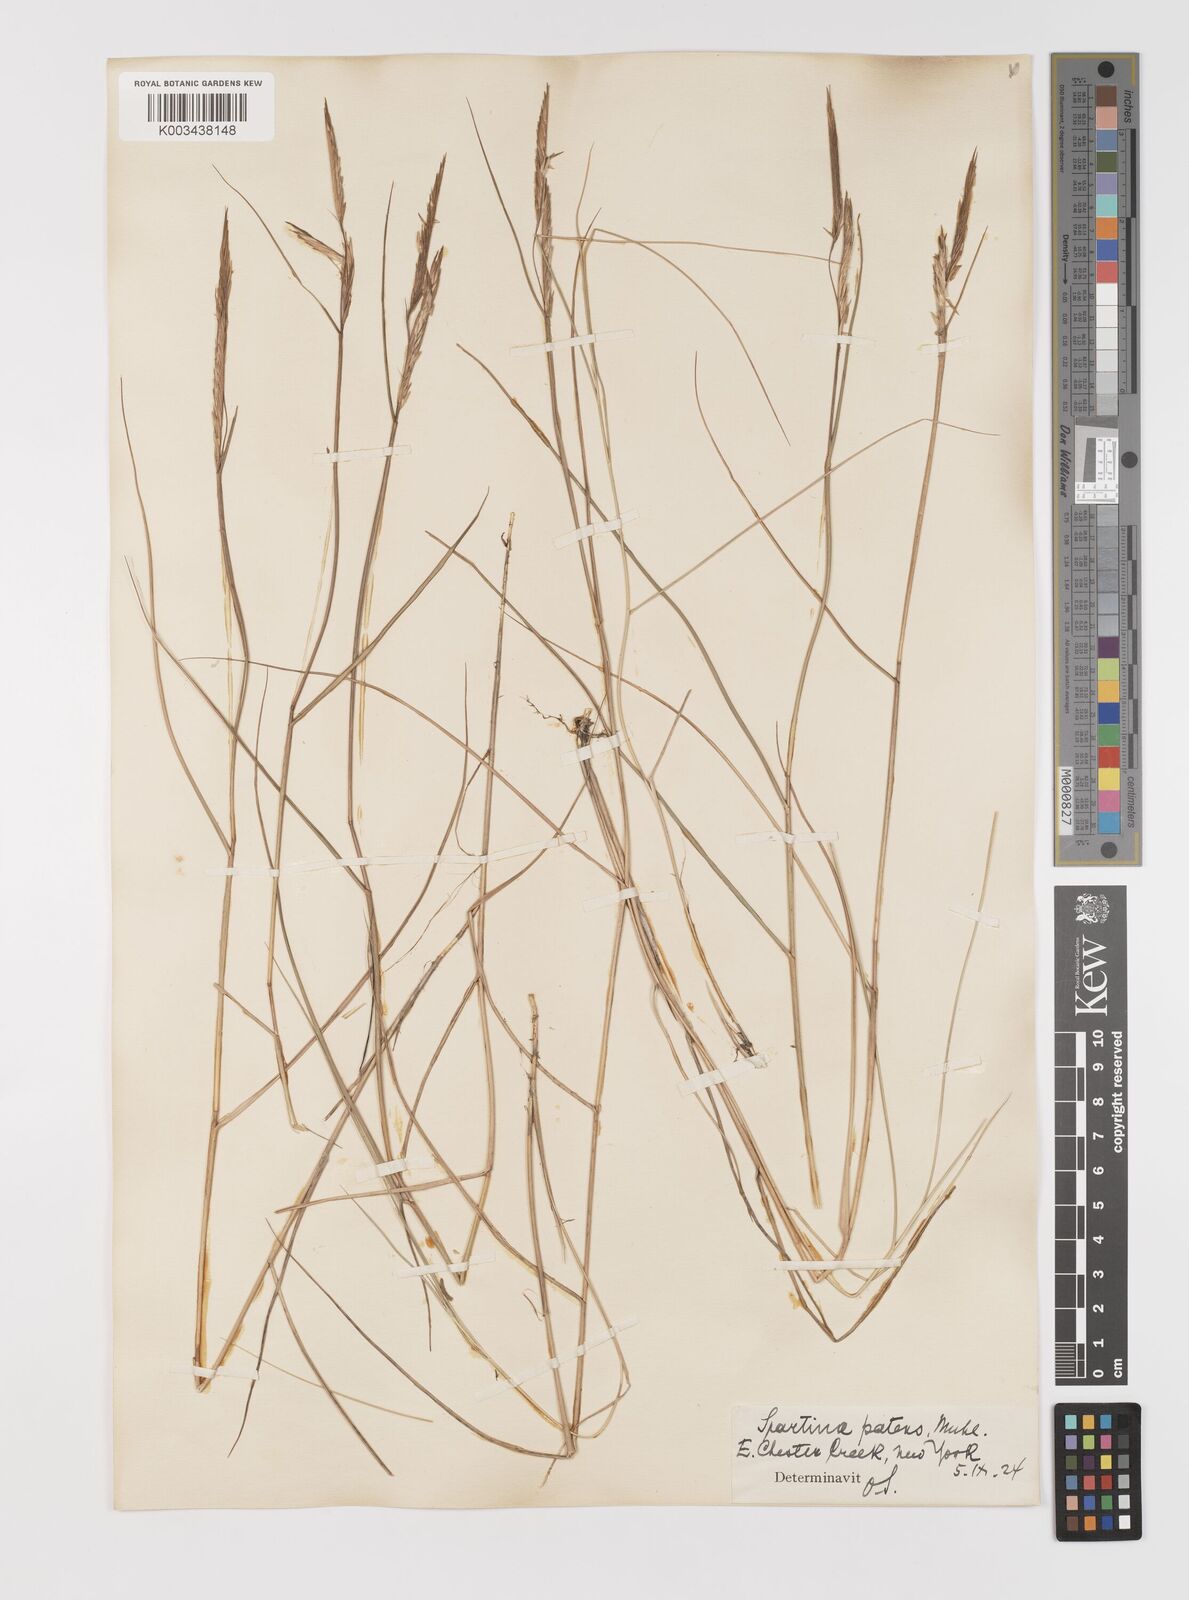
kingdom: Plantae
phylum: Tracheophyta
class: Liliopsida
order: Poales
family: Poaceae
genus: Sporobolus
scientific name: Sporobolus pumilus
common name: Highwater grass
